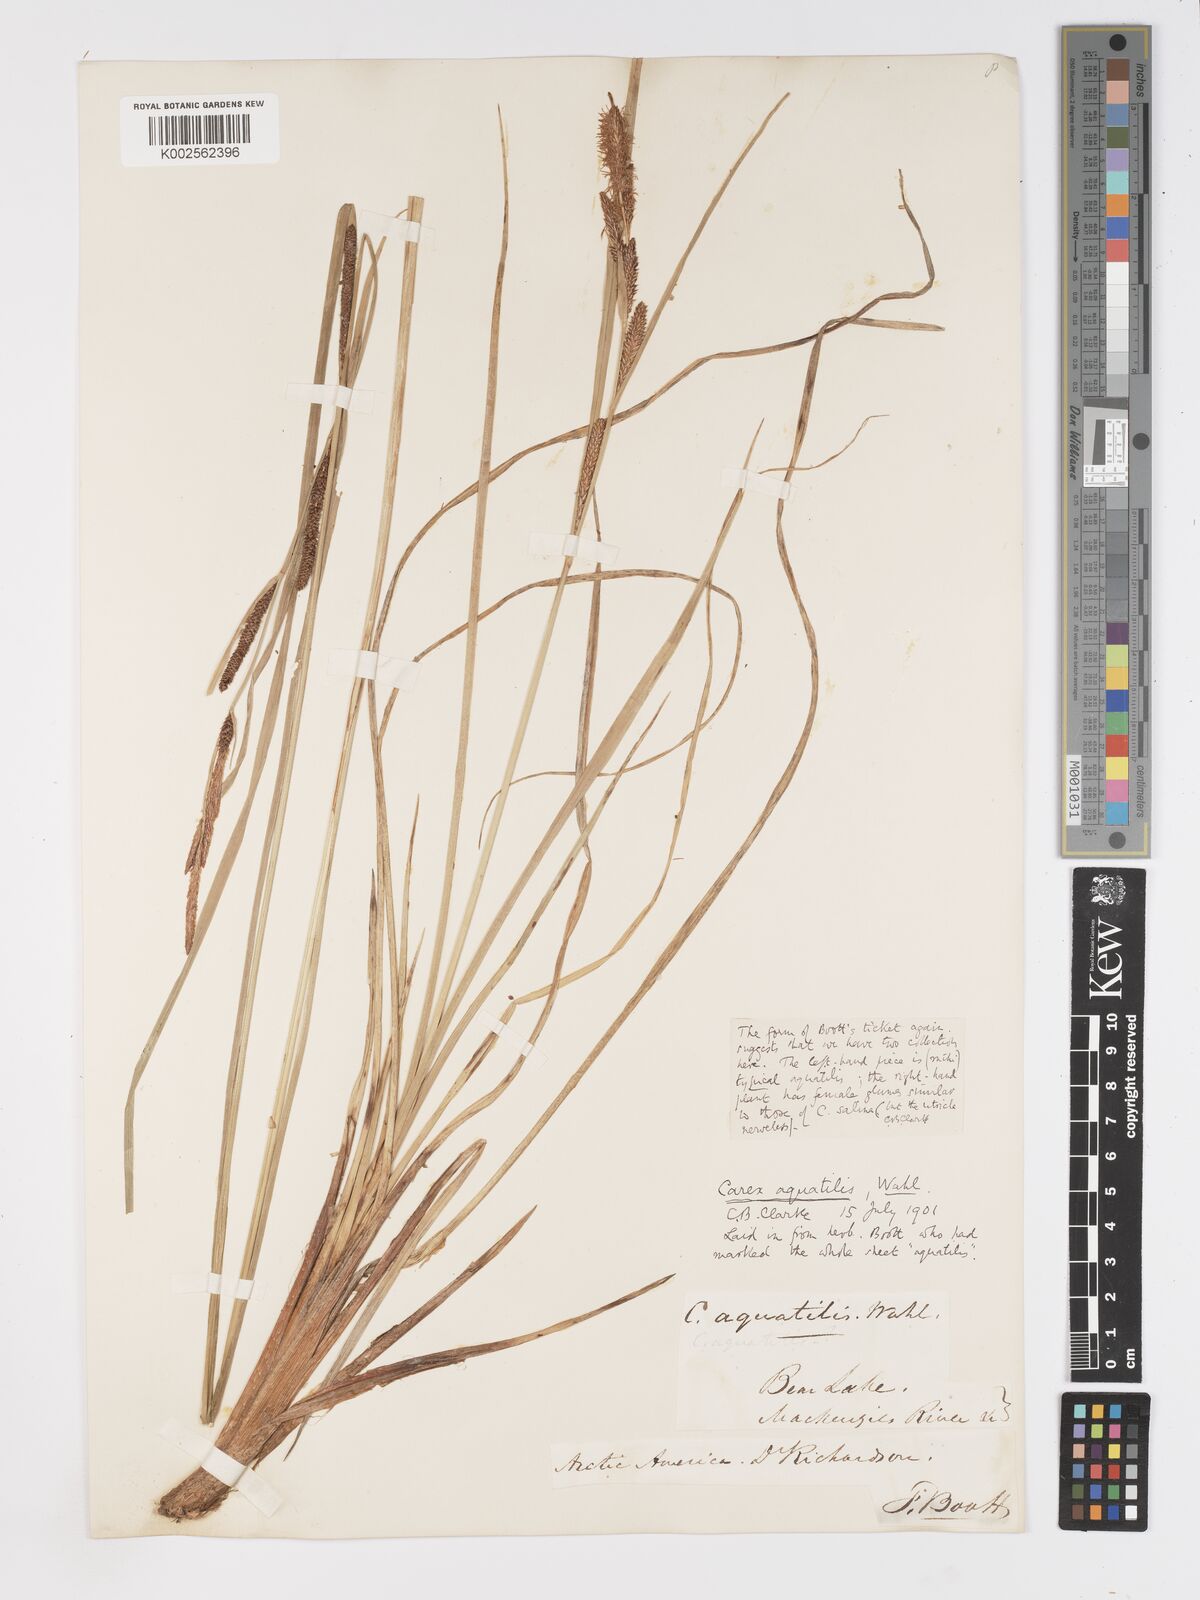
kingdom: Plantae
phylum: Tracheophyta
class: Liliopsida
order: Poales
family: Cyperaceae
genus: Carex
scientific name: Carex aquatilis
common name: Water sedge
